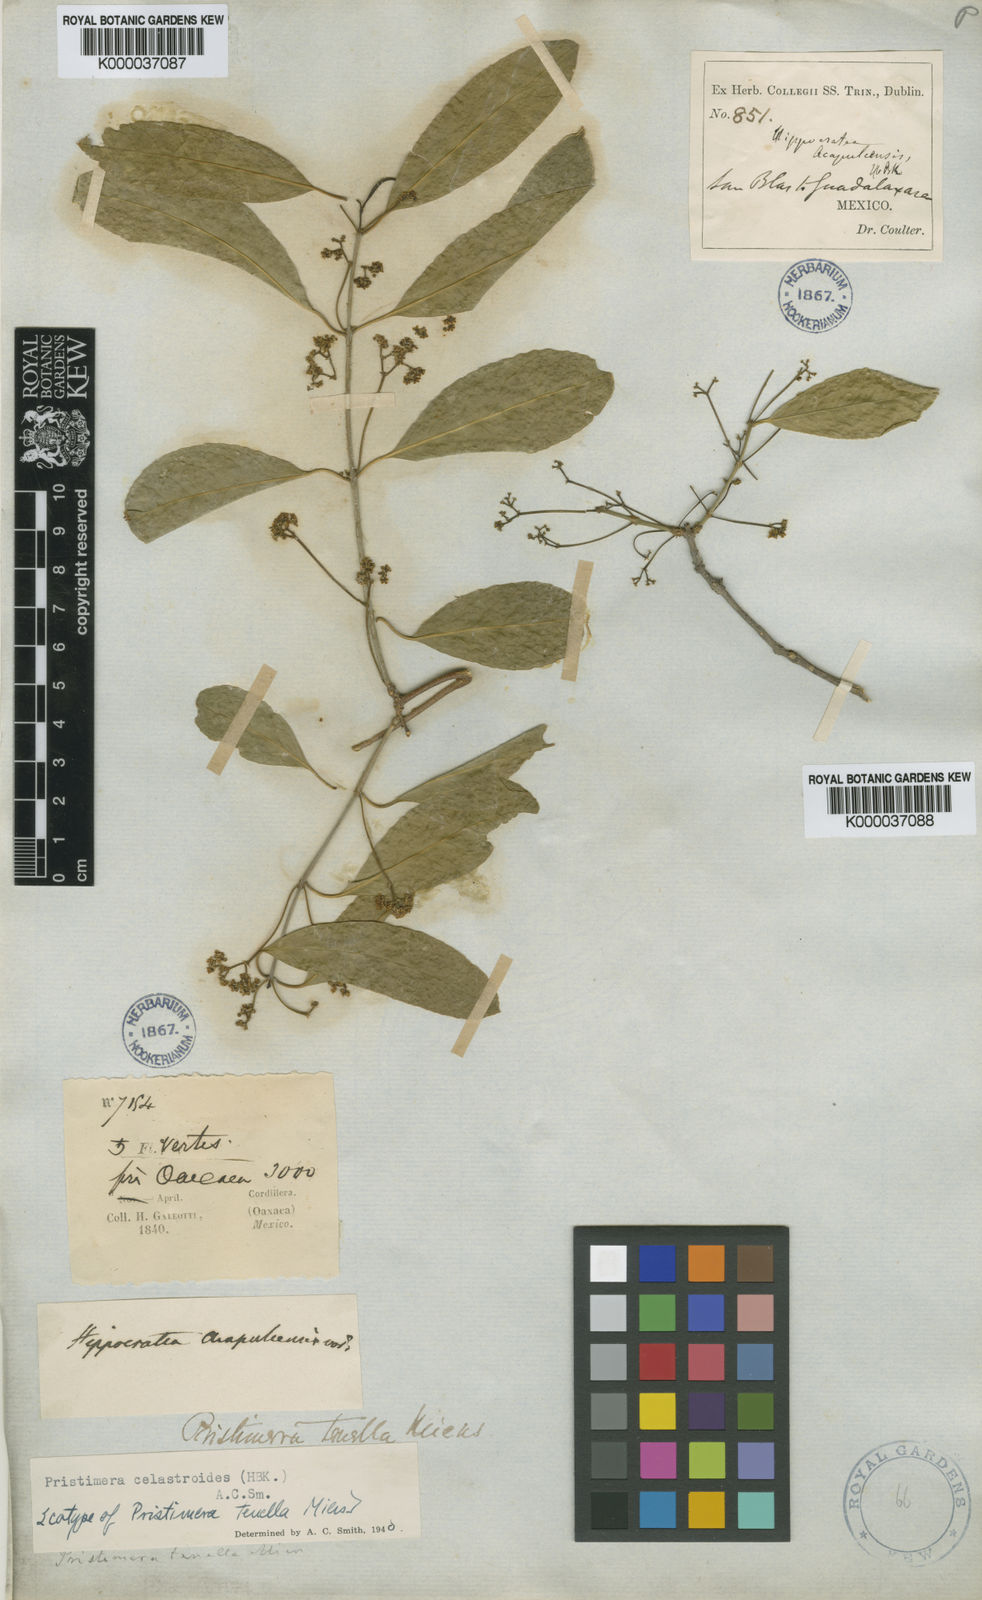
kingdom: Plantae
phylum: Tracheophyta
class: Magnoliopsida
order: Celastrales
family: Celastraceae
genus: Pristimera
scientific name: Pristimera
